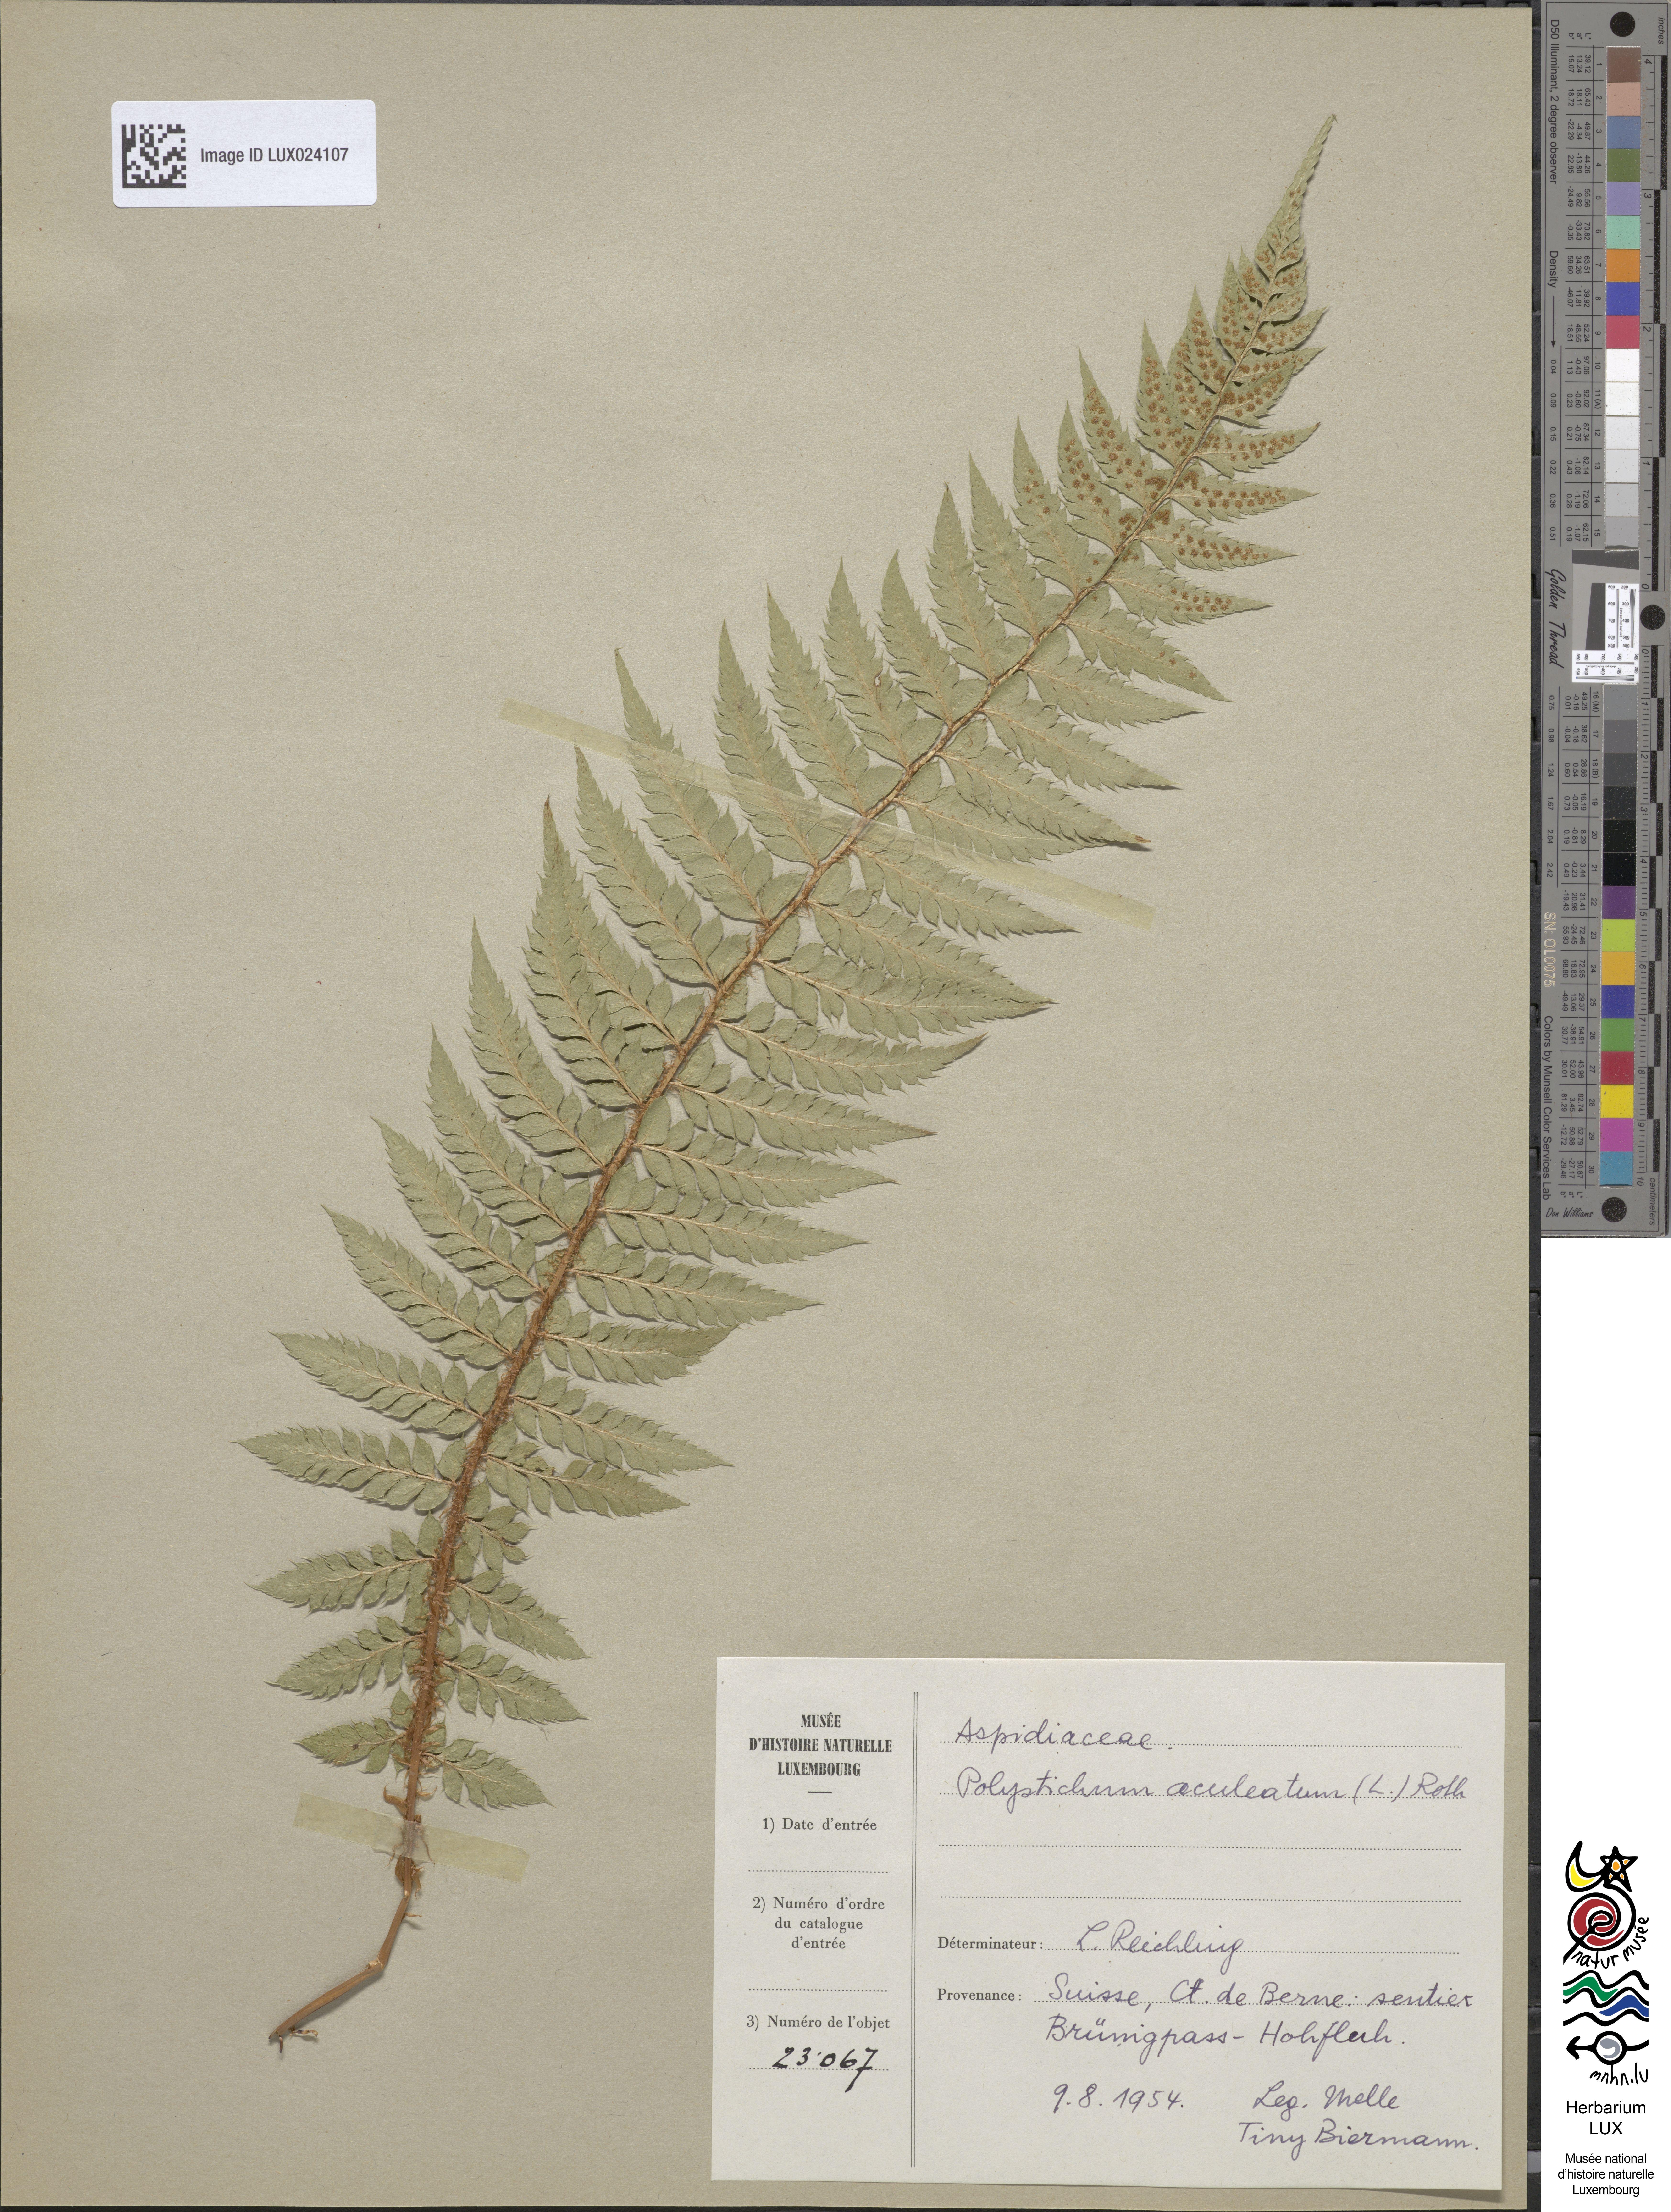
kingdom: Plantae
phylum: Tracheophyta
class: Polypodiopsida
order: Polypodiales
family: Dryopteridaceae
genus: Polystichum
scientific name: Polystichum aculeatum
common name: Hard shield-fern
